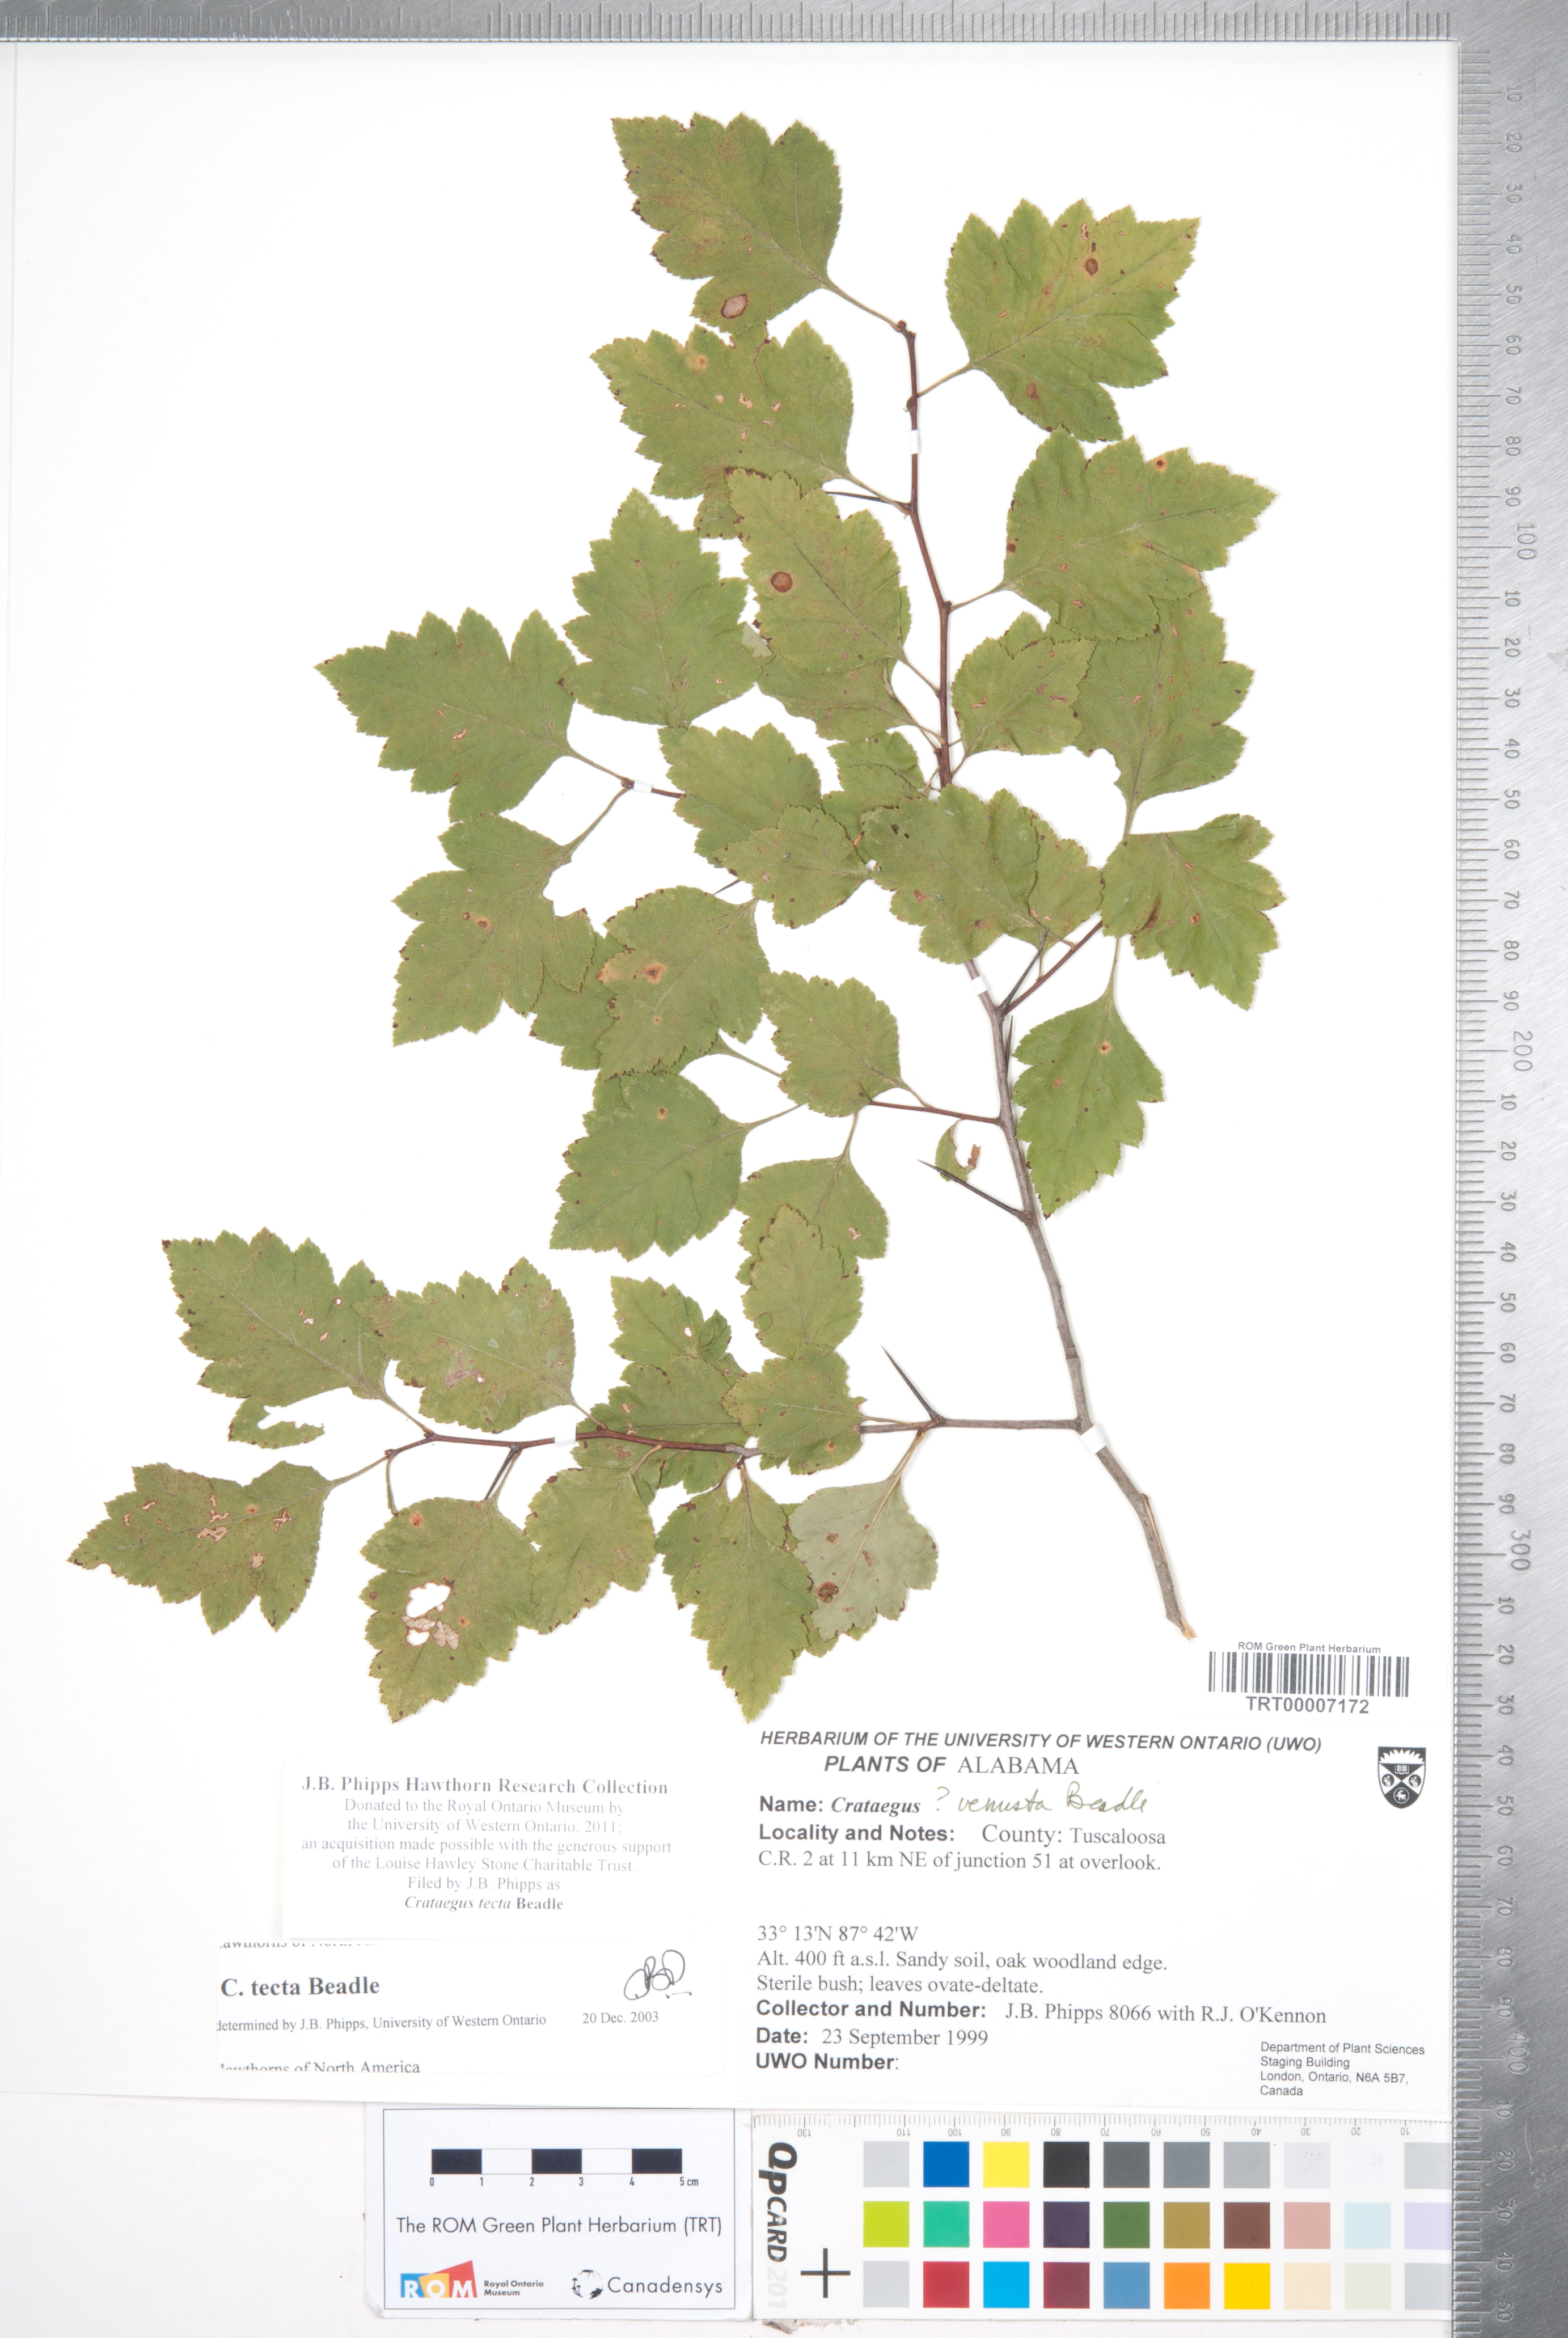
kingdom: Plantae
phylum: Tracheophyta
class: Magnoliopsida
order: Rosales
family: Rosaceae
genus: Crataegus
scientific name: Crataegus pulcherrima
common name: Beautiful hawthorn
